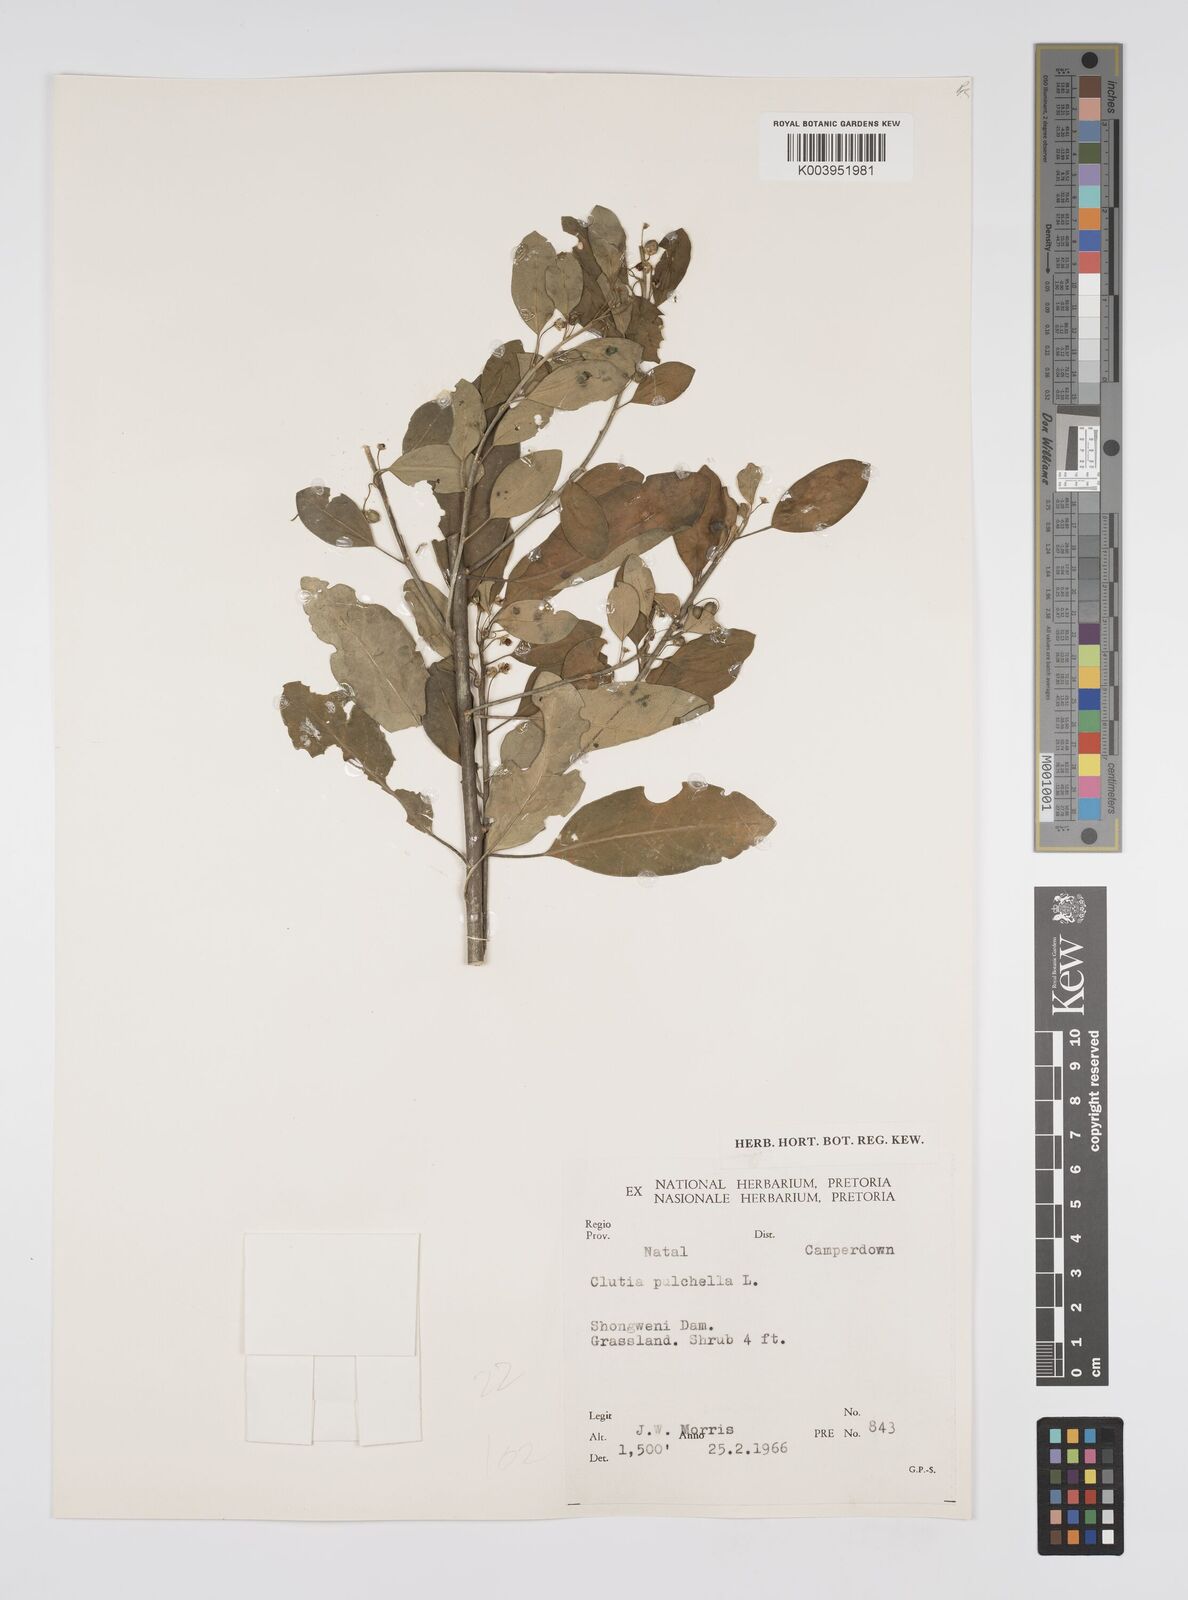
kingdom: Plantae
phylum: Tracheophyta
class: Magnoliopsida
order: Malpighiales
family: Peraceae
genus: Clutia
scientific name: Clutia pulchella
